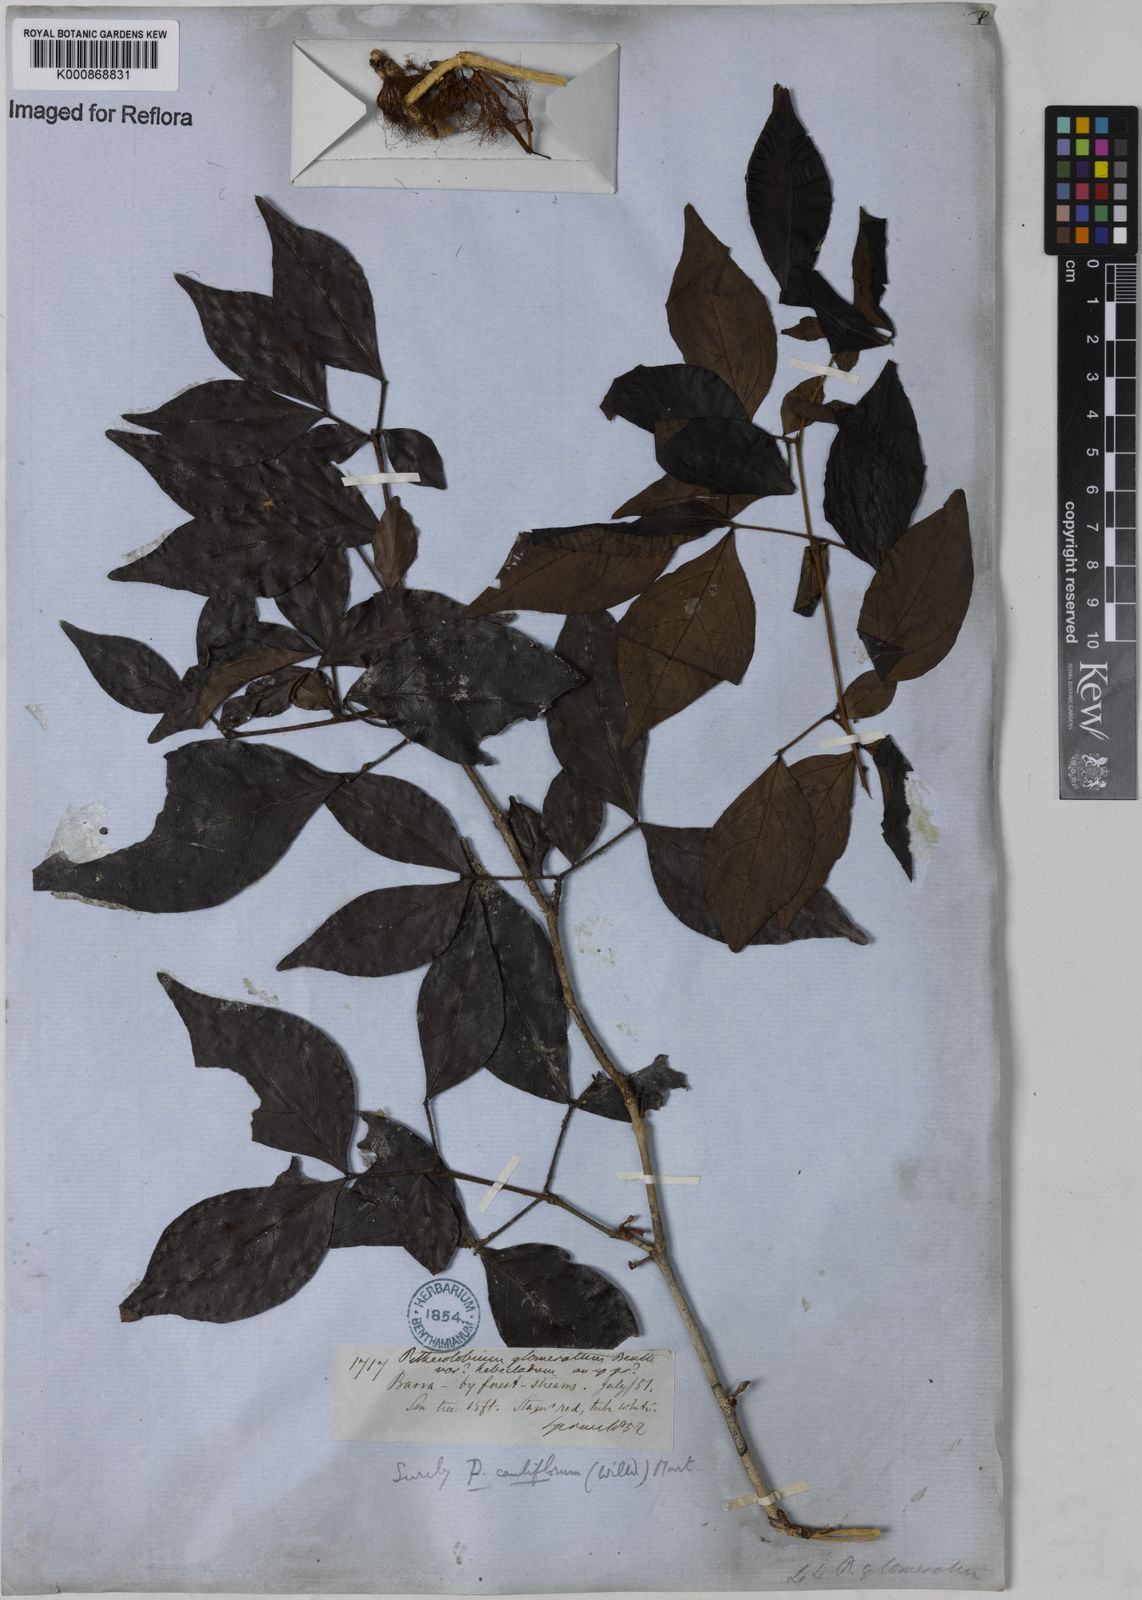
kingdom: Plantae
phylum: Tracheophyta
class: Magnoliopsida
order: Fabales
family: Fabaceae
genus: Zygia
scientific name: Zygia
